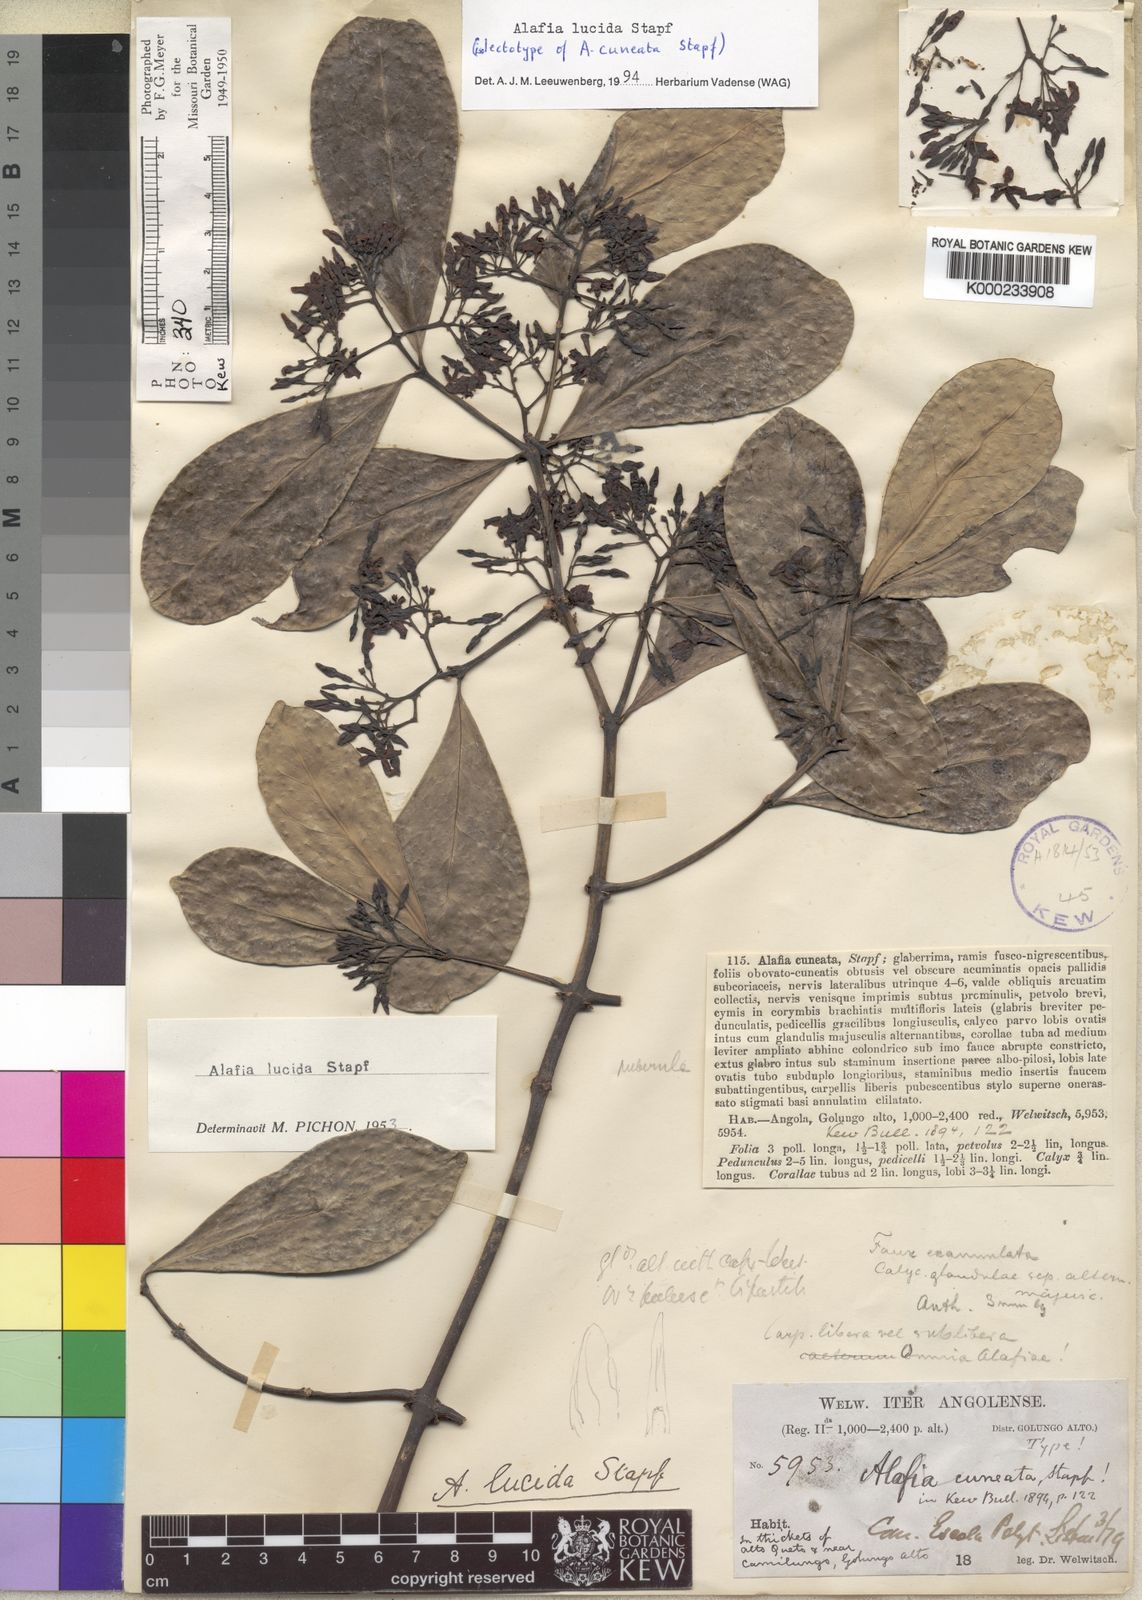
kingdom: Plantae
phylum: Tracheophyta
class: Magnoliopsida
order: Gentianales
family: Apocynaceae
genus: Alafia
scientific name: Alafia lucida
